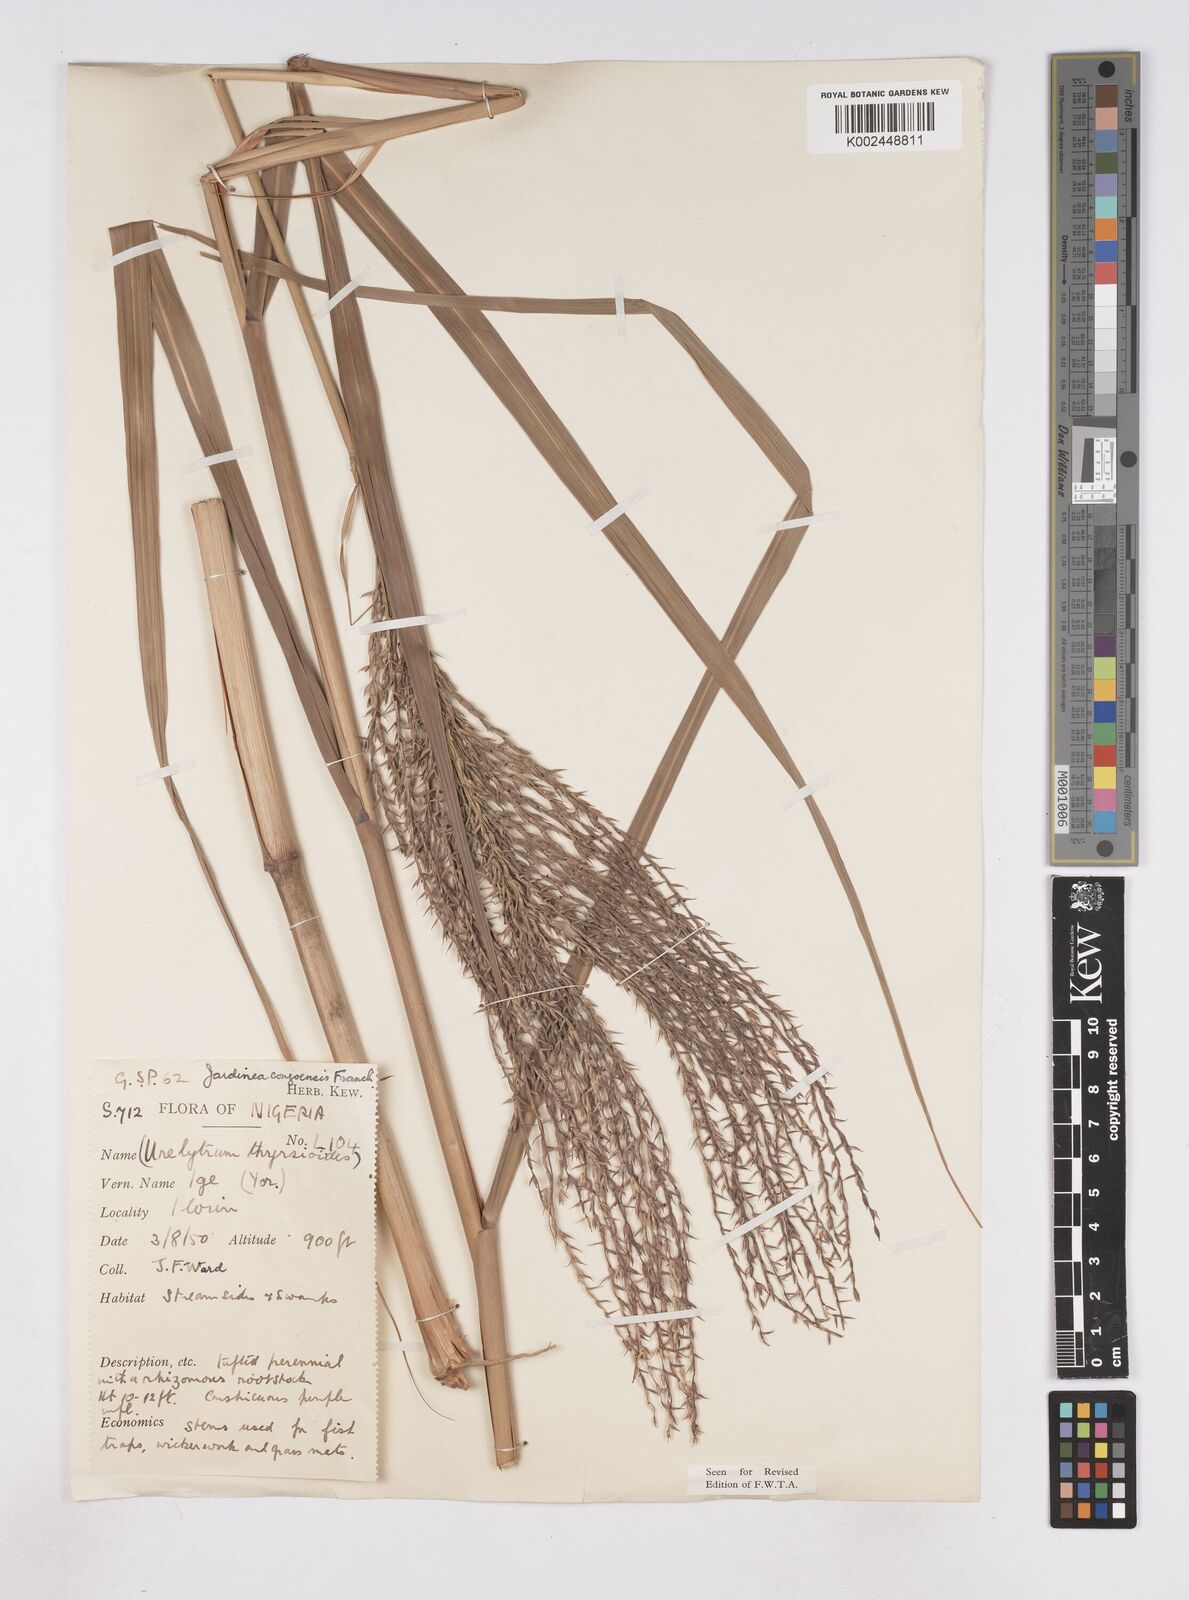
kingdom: Plantae
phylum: Tracheophyta
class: Liliopsida
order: Poales
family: Poaceae
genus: Phacelurus
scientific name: Phacelurus gabonensis
